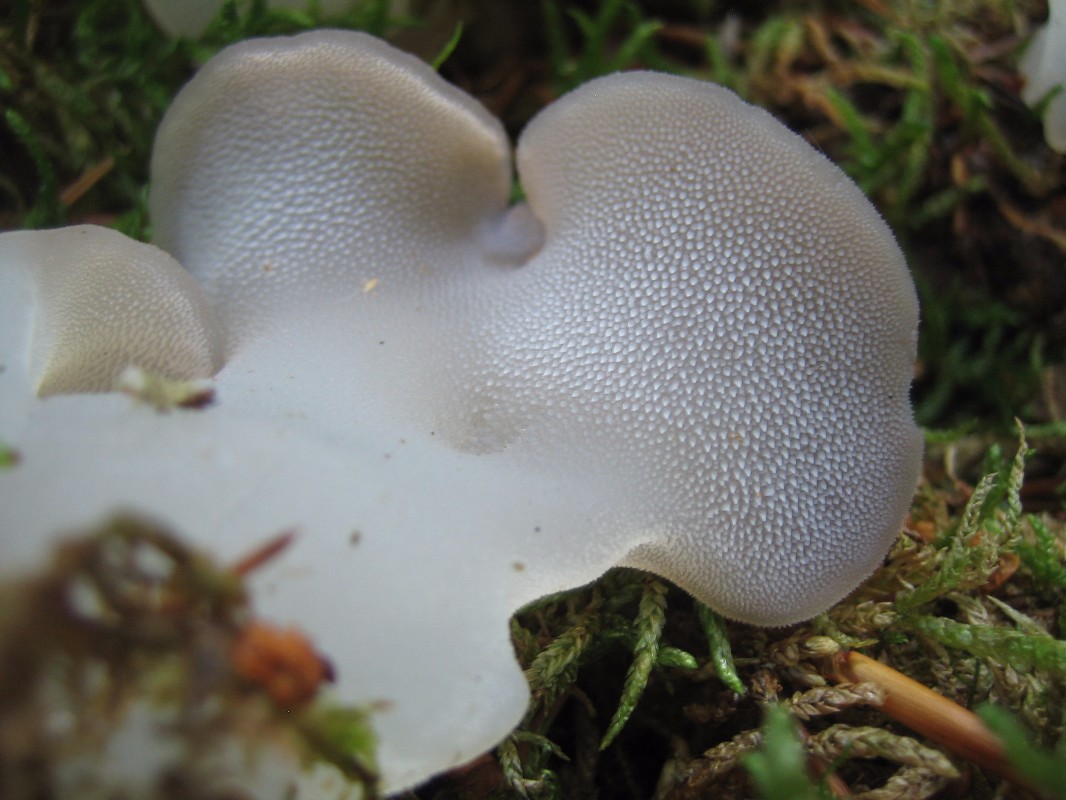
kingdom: Fungi
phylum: Basidiomycota
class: Agaricomycetes
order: Auriculariales
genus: Pseudohydnum
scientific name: Pseudohydnum gelatinosum
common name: bævretand
